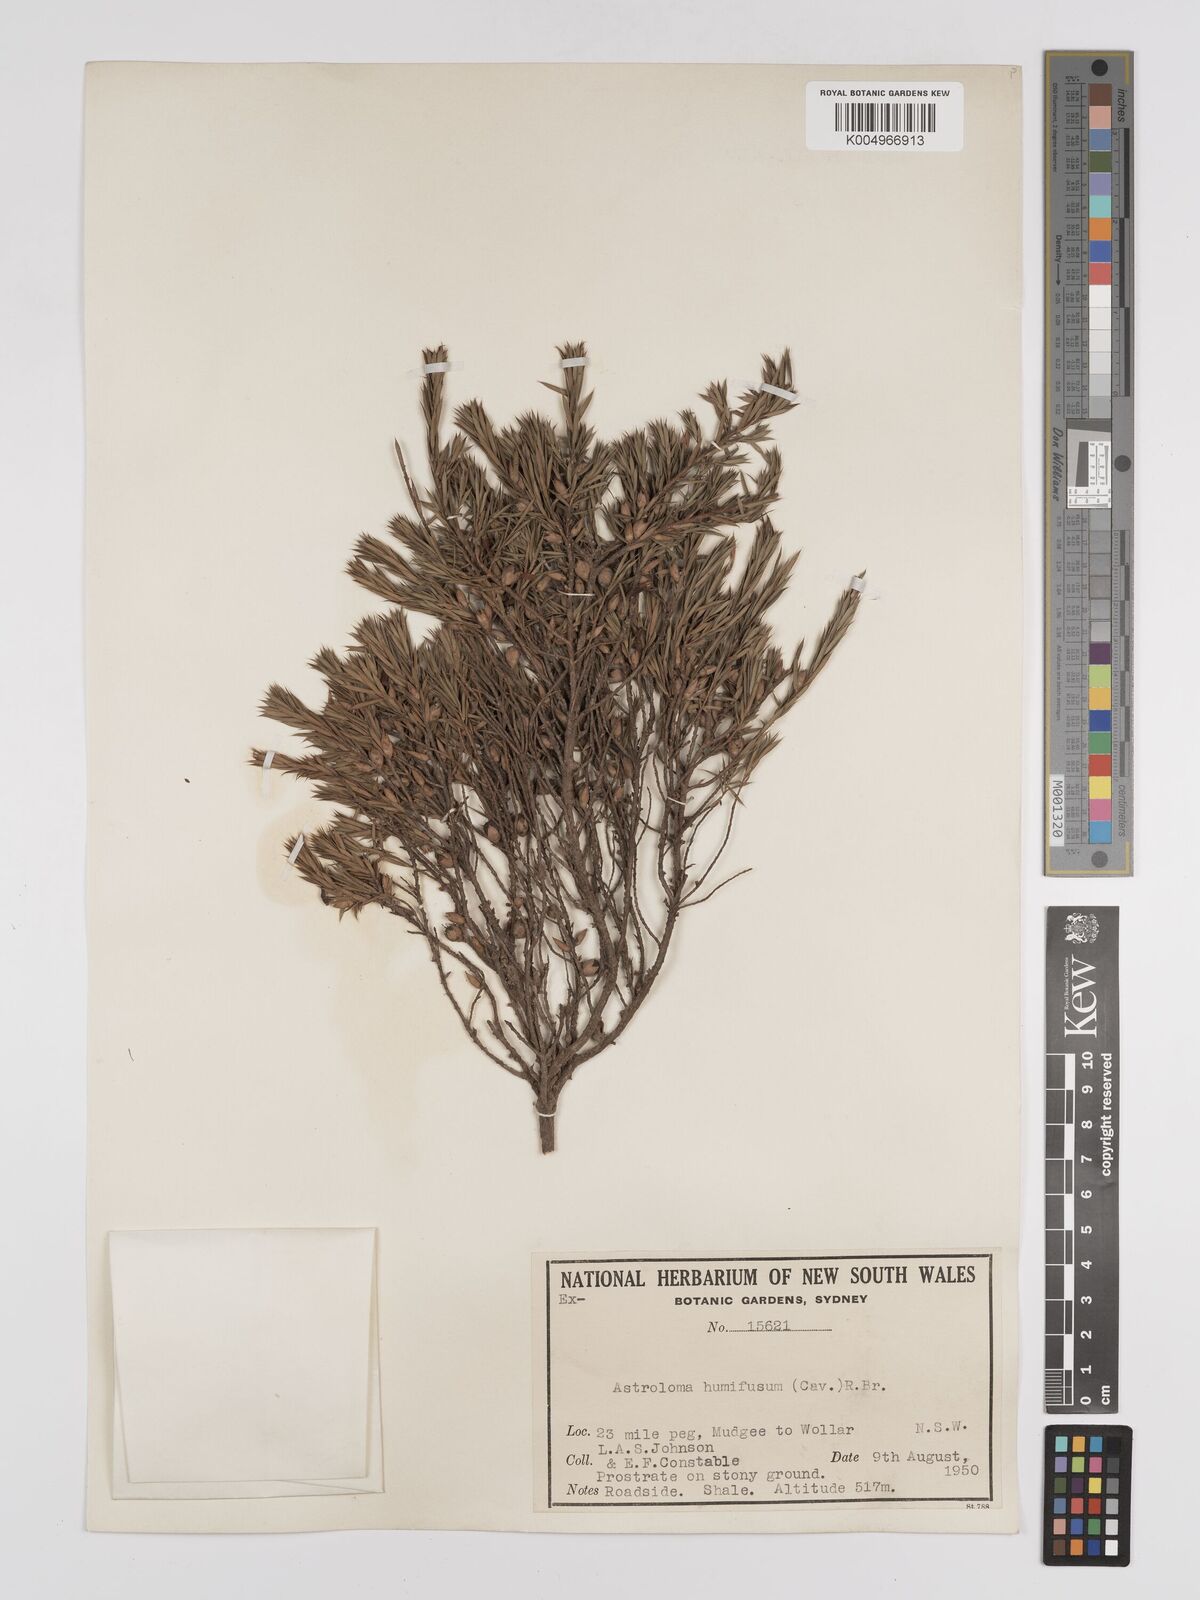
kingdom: Plantae
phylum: Tracheophyta
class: Magnoliopsida
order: Ericales
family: Ericaceae
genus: Styphelia
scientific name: Styphelia humifusa
